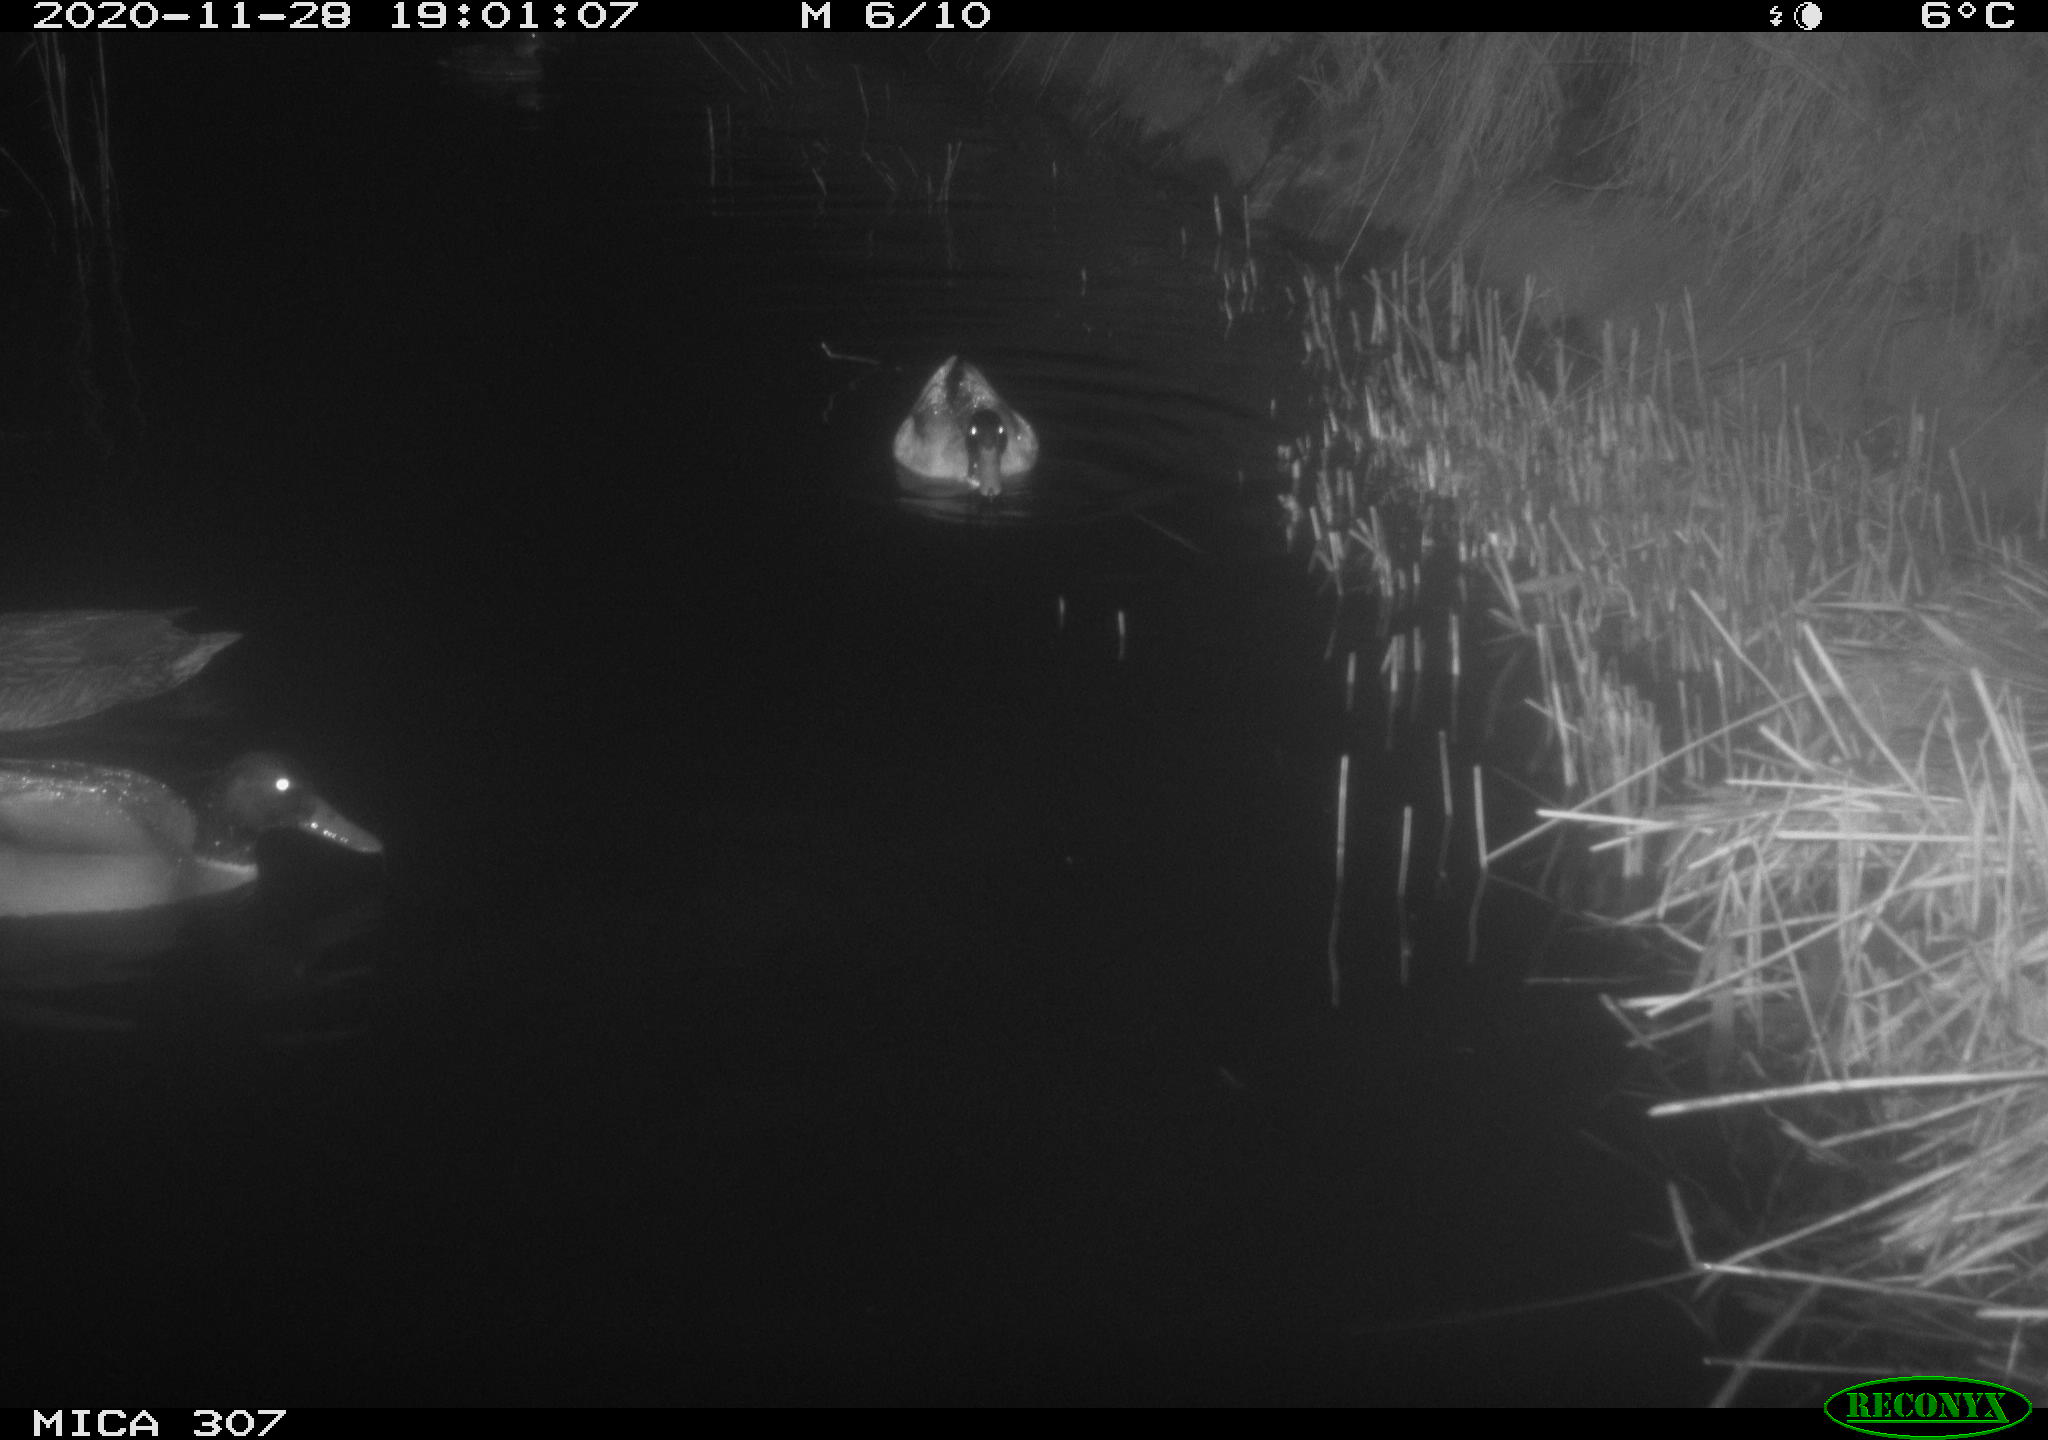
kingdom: Animalia
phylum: Chordata
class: Aves
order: Anseriformes
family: Anatidae
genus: Anas
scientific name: Anas platyrhynchos
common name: Mallard
